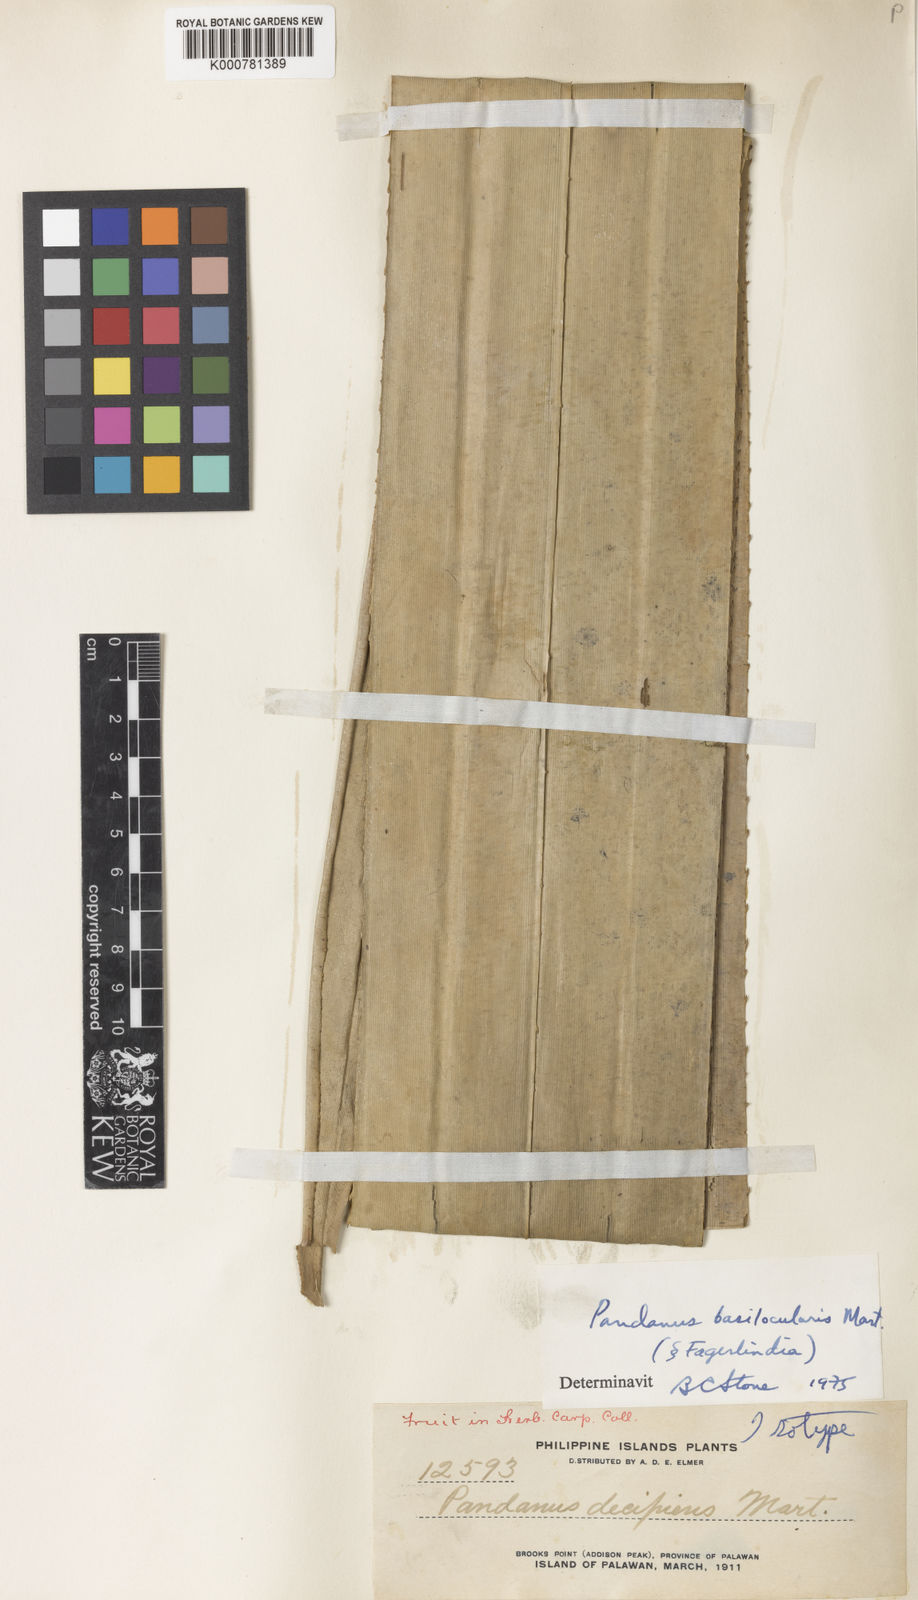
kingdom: Plantae
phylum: Tracheophyta
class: Liliopsida
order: Pandanales
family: Pandanaceae
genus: Pandanus
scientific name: Pandanus
